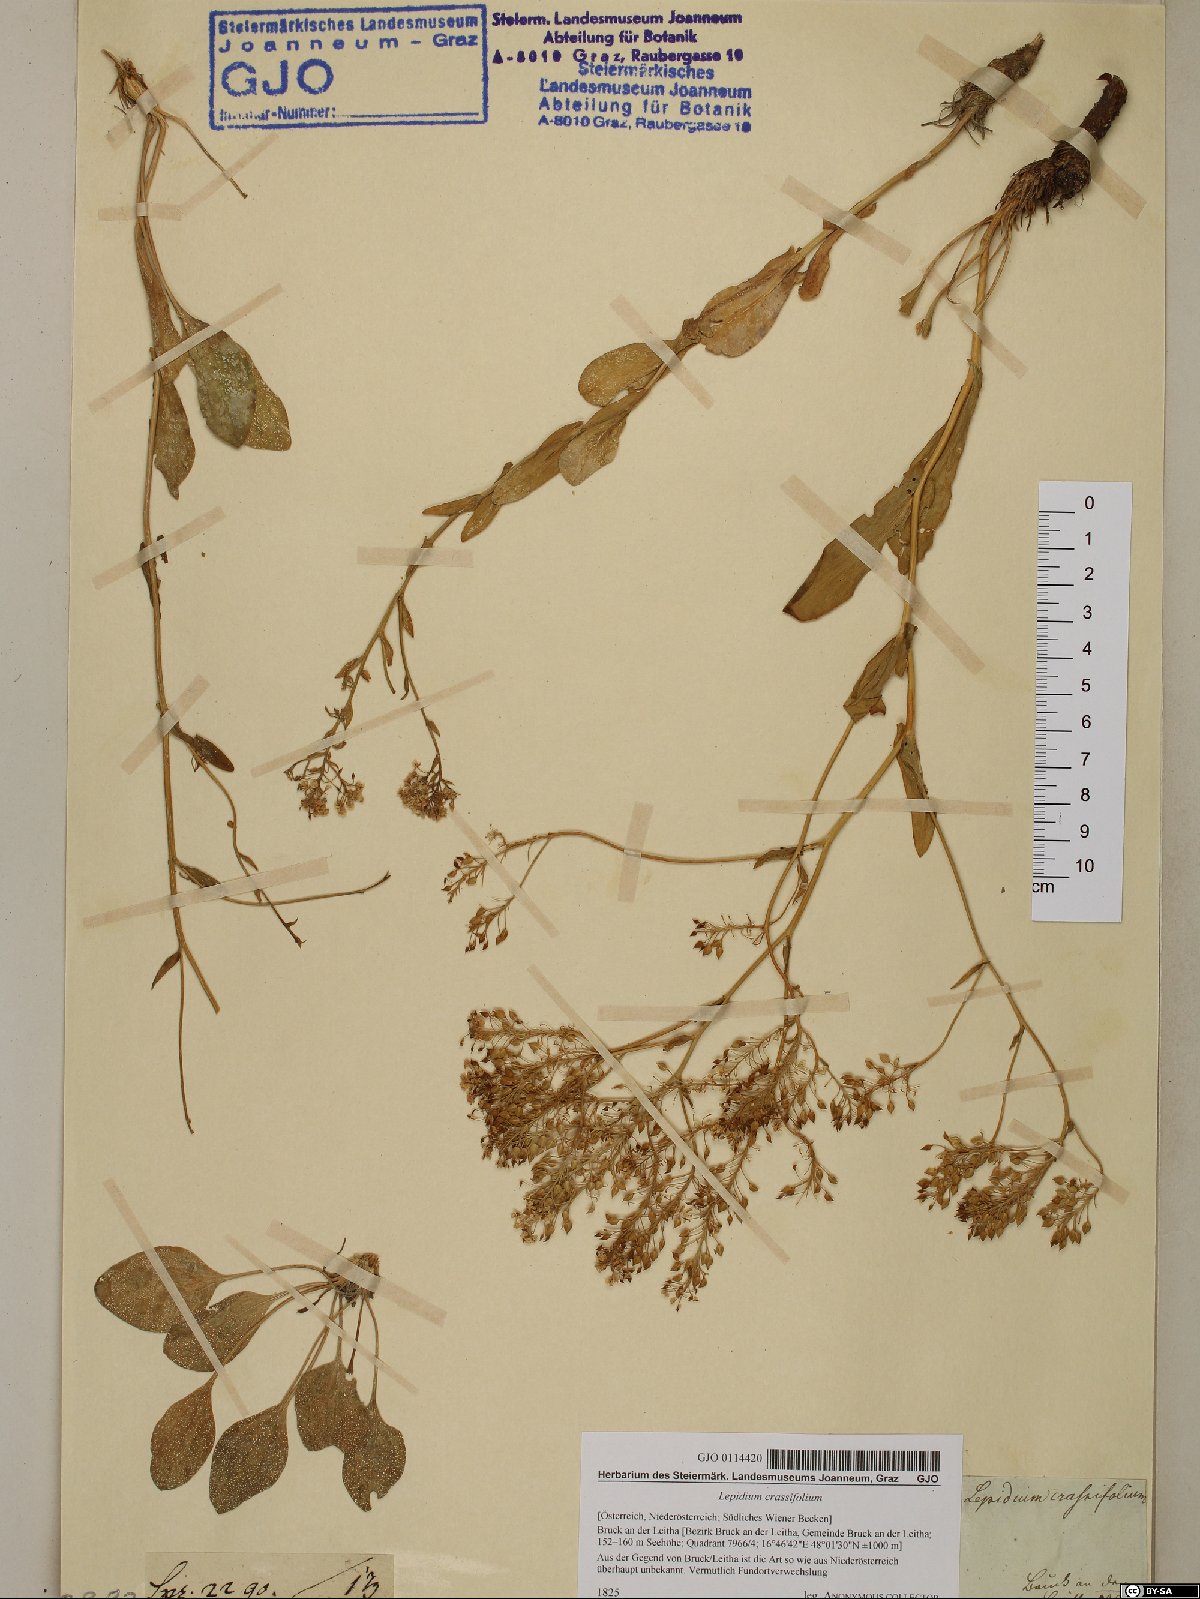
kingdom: Plantae
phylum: Tracheophyta
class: Magnoliopsida
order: Brassicales
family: Brassicaceae
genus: Lepidium
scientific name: Lepidium cartilagineum
